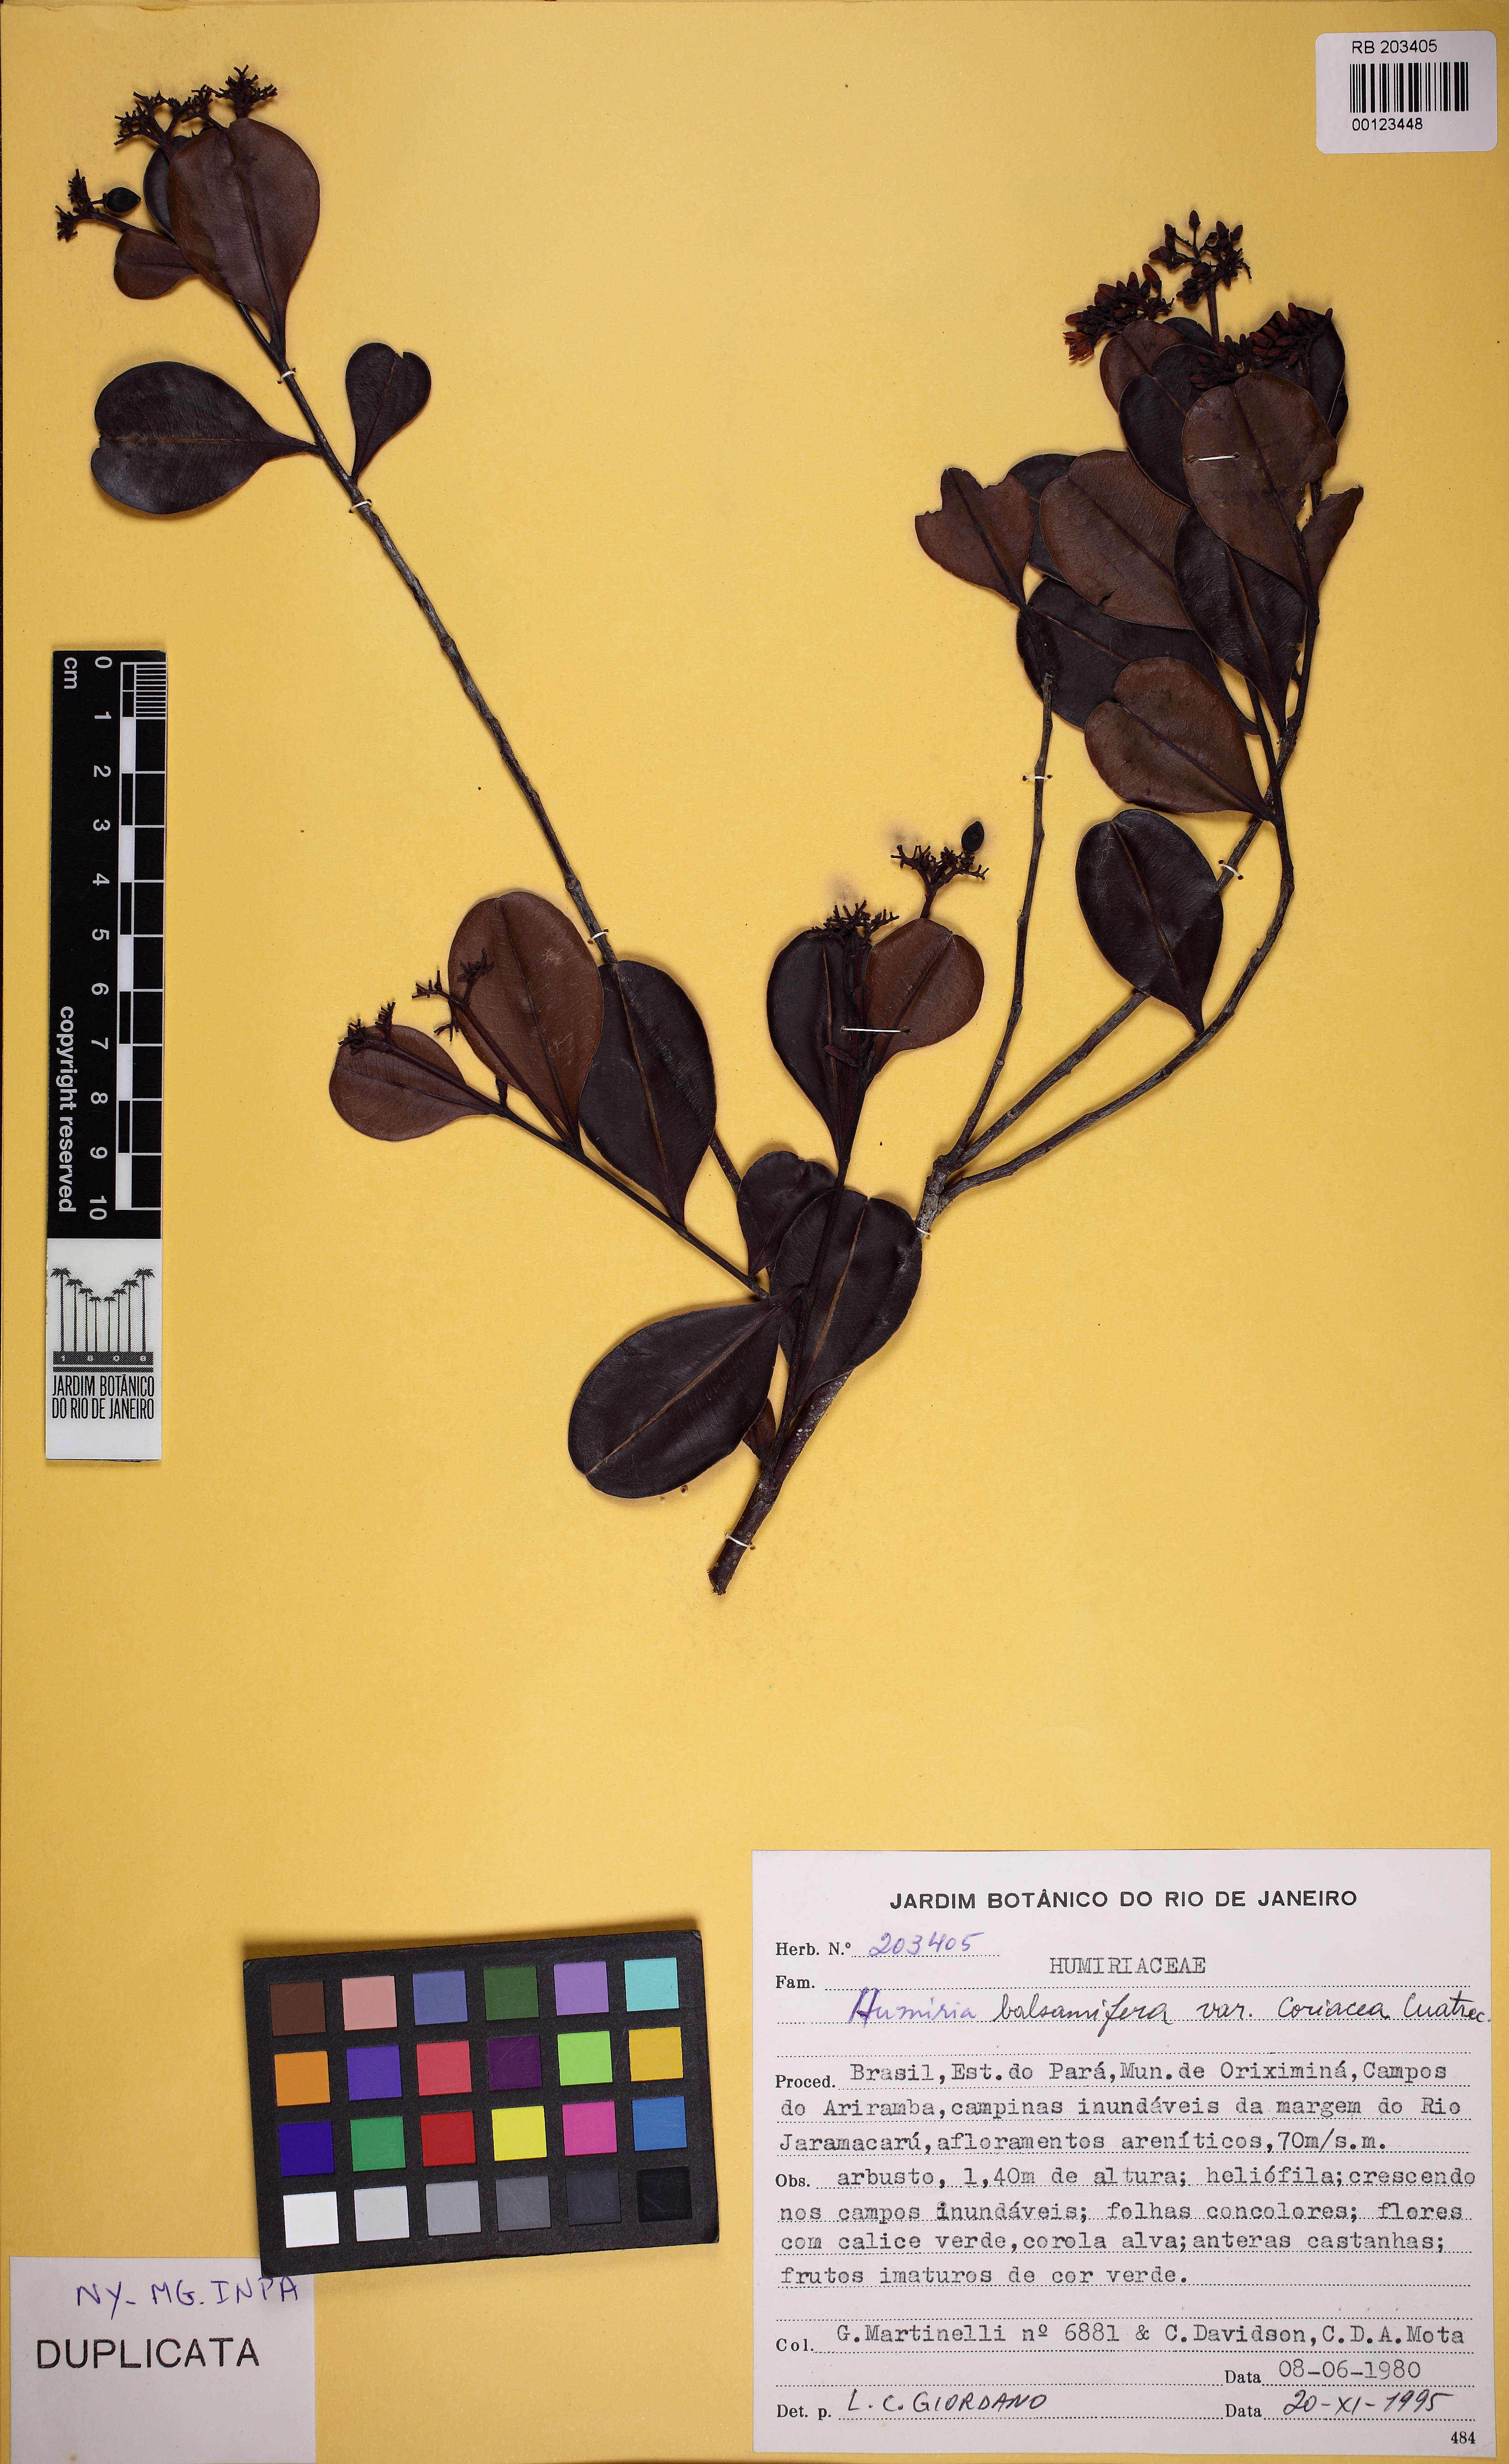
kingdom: Plantae
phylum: Tracheophyta
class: Magnoliopsida
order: Malpighiales
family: Humiriaceae
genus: Humiria
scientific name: Humiria balsamifera
